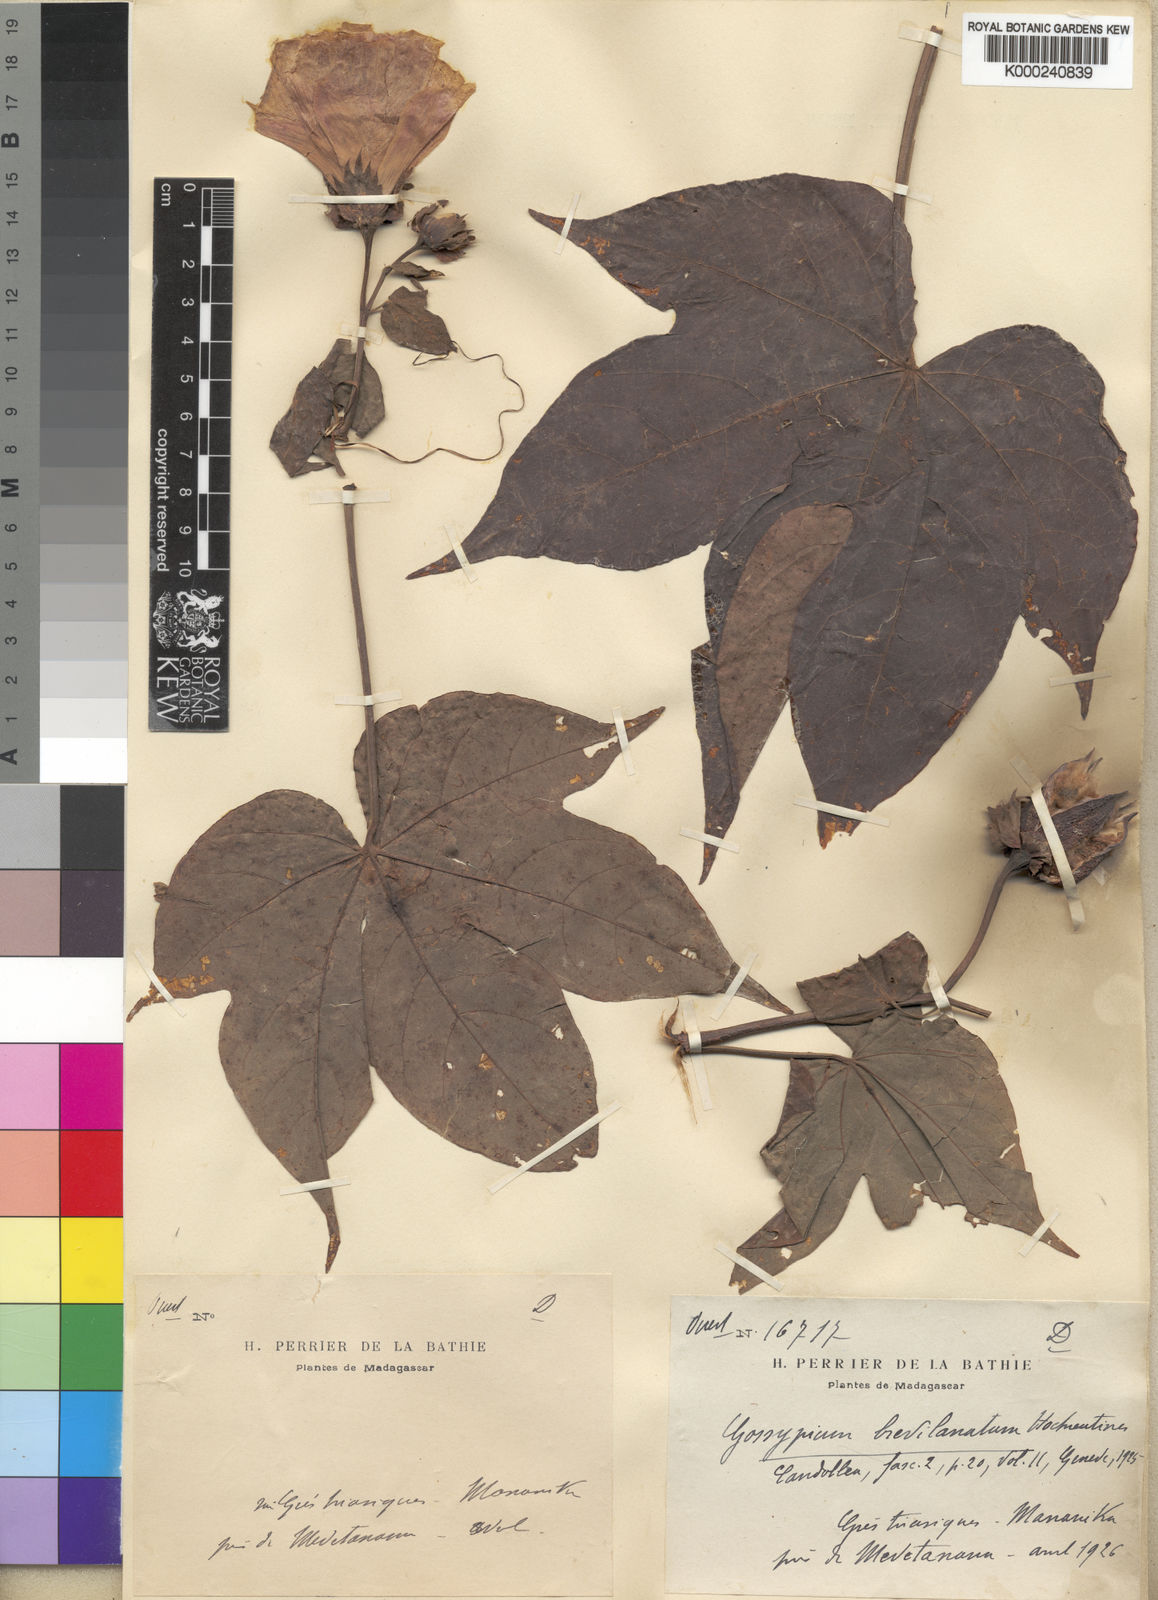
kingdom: Plantae
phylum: Tracheophyta
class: Magnoliopsida
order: Malvales
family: Malvaceae
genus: Gossypioides
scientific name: Gossypioides brevilanatum
